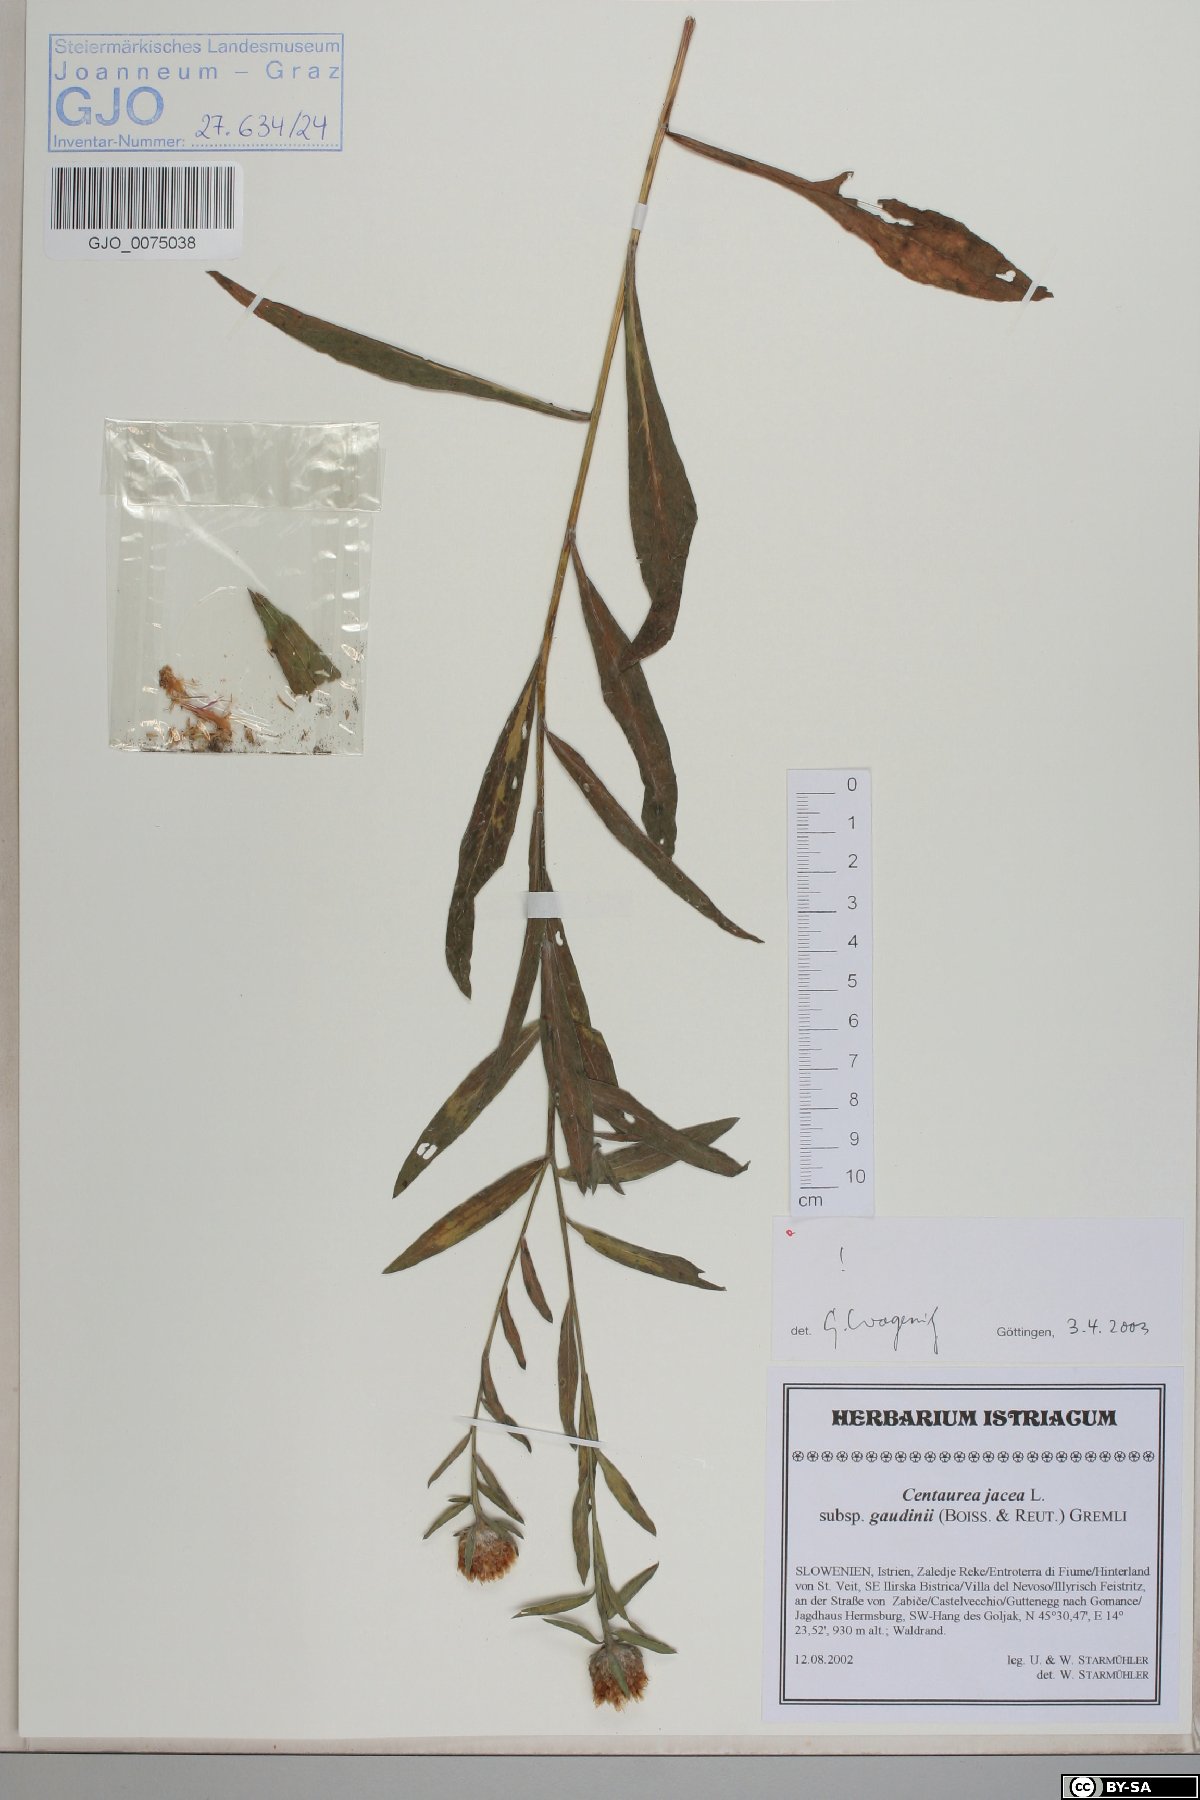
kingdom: Plantae
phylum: Tracheophyta
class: Magnoliopsida
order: Asterales
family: Asteraceae
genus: Centaurea
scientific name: Centaurea jacea
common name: Brown knapweed
